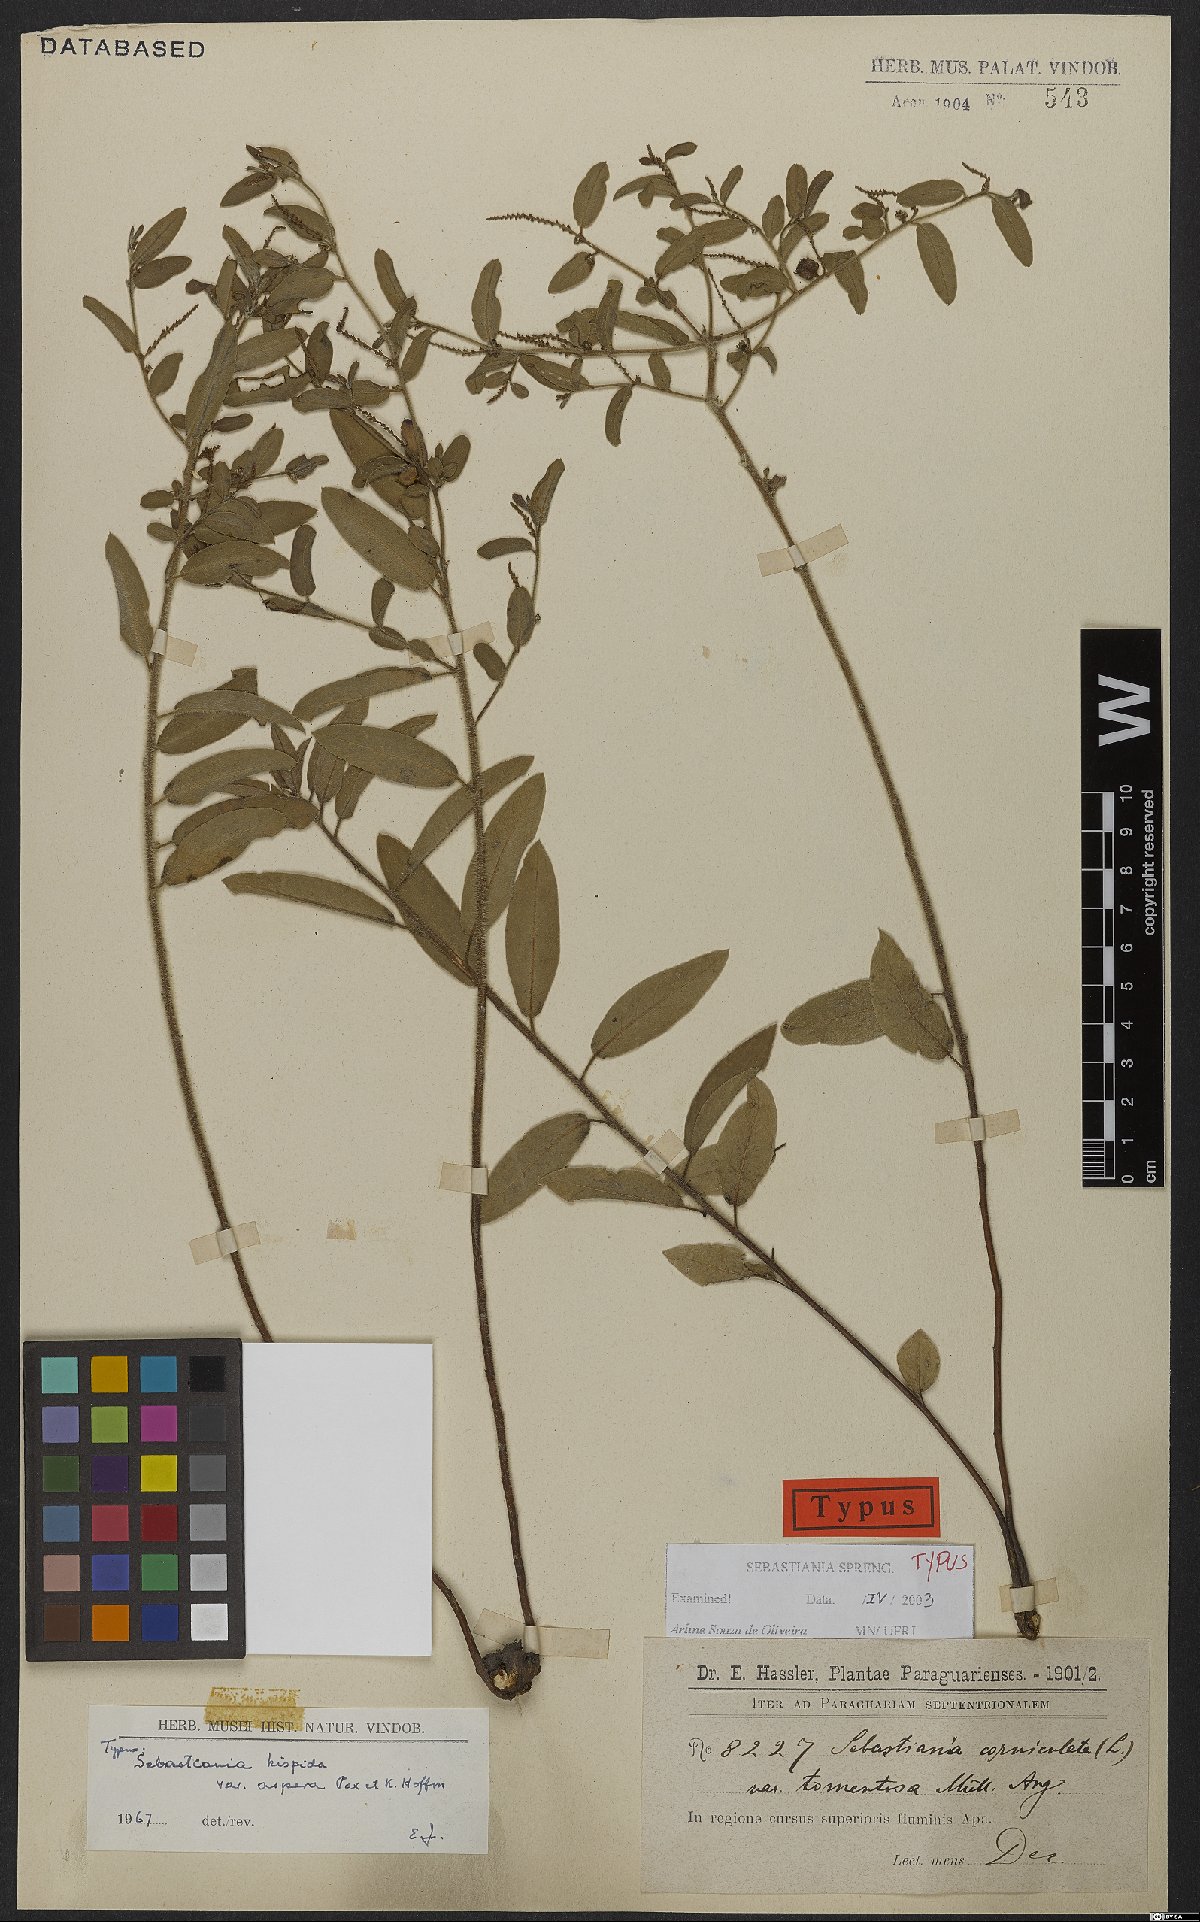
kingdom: Plantae
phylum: Tracheophyta
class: Magnoliopsida
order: Malpighiales
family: Euphorbiaceae
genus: Microstachys
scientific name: Microstachys hispida
